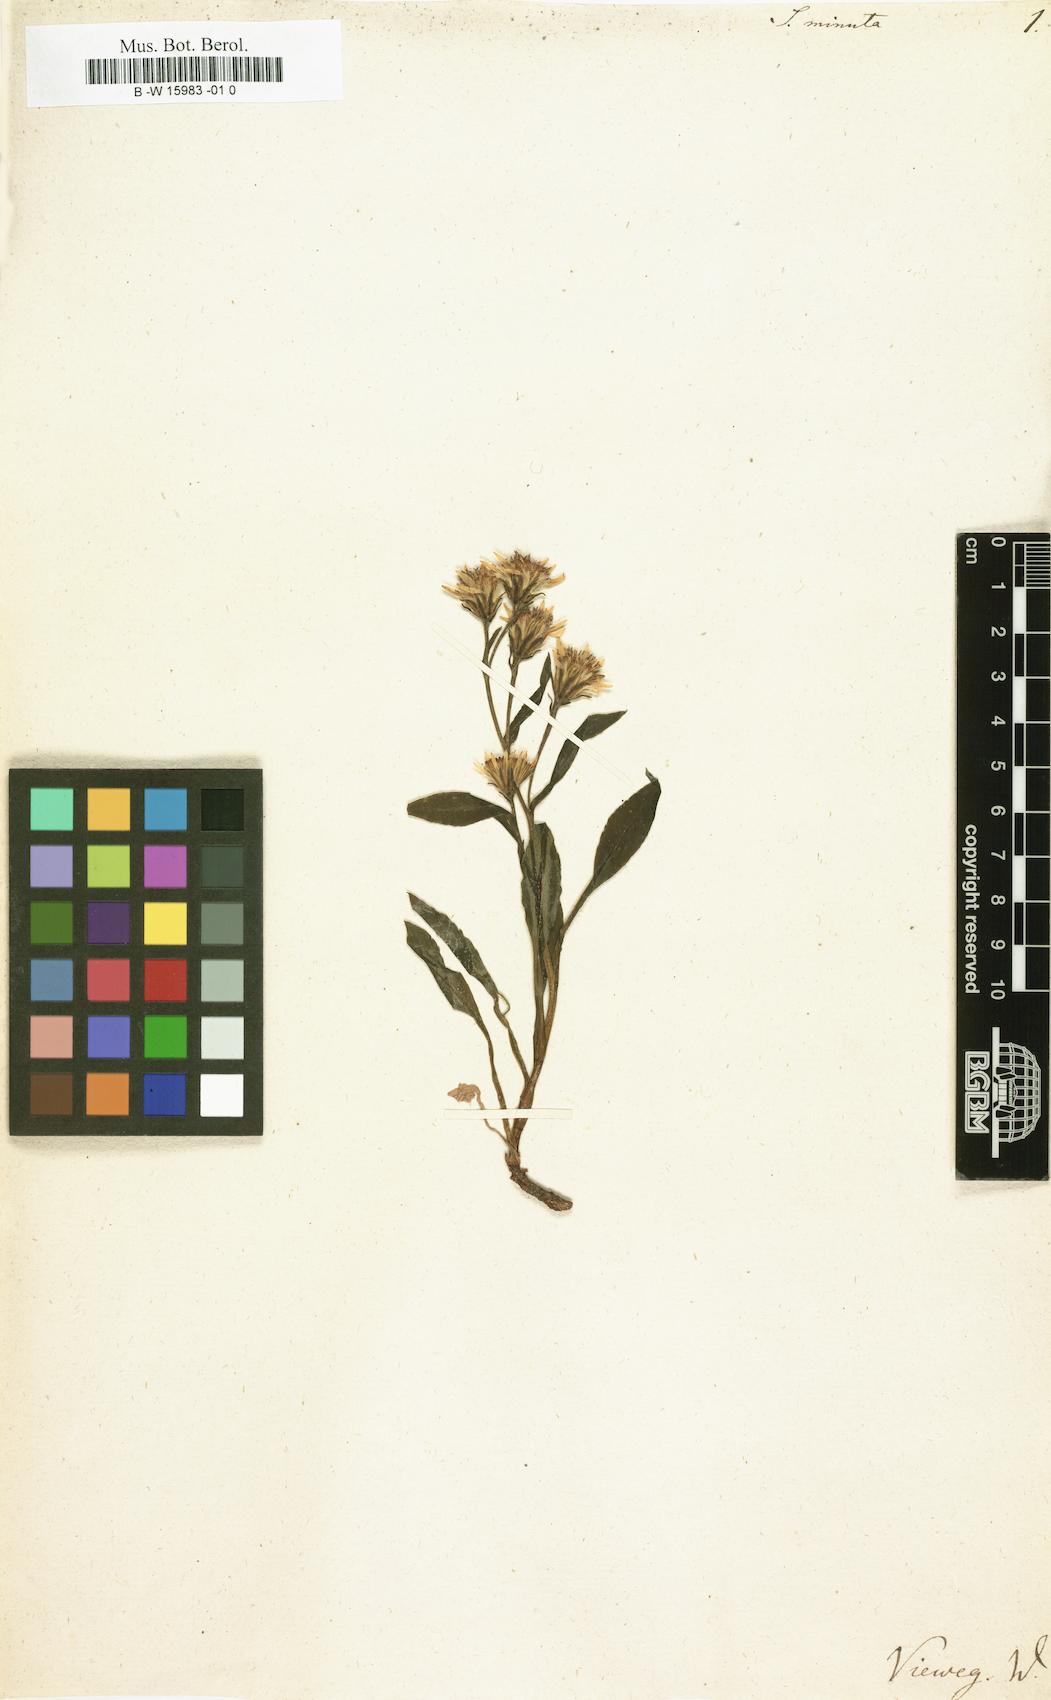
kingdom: Plantae
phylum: Tracheophyta
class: Magnoliopsida
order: Asterales
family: Asteraceae
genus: Solidago
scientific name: Solidago virgaurea
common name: Goldenrod
